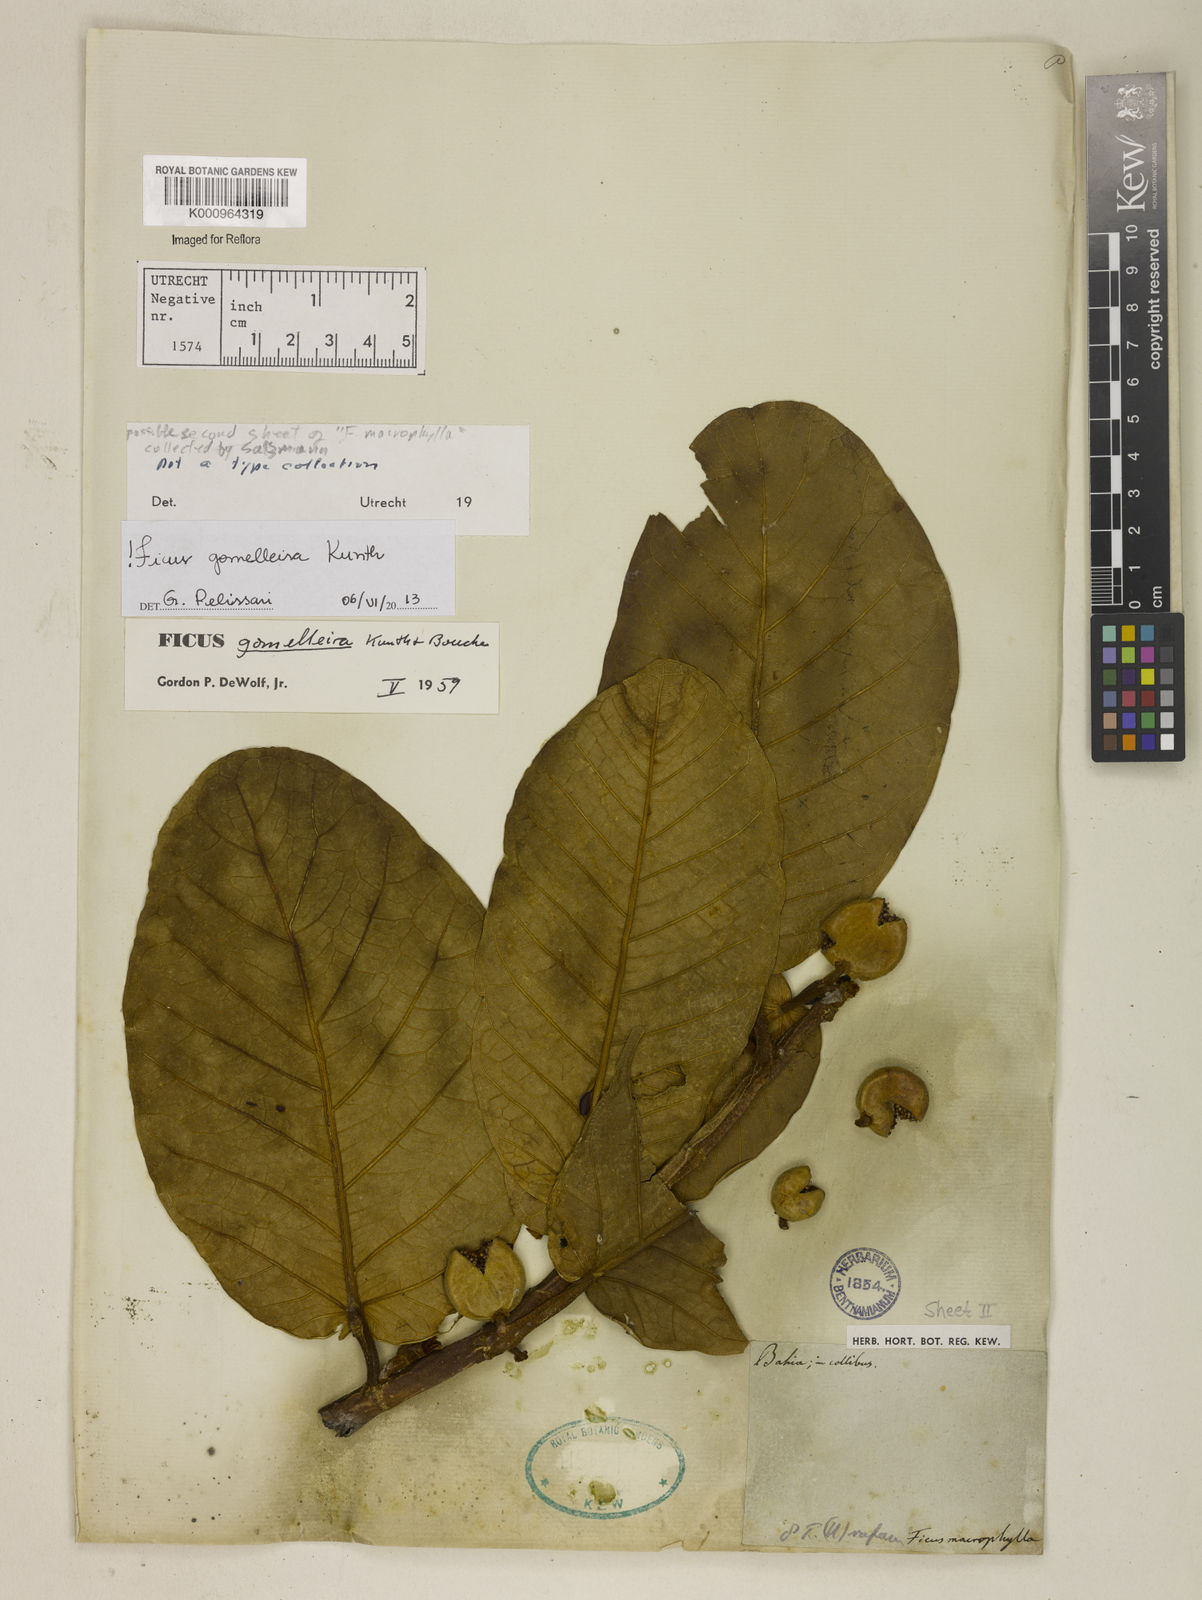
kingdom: Plantae
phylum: Tracheophyta
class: Magnoliopsida
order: Rosales
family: Moraceae
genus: Ficus
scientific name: Ficus gomelleira
